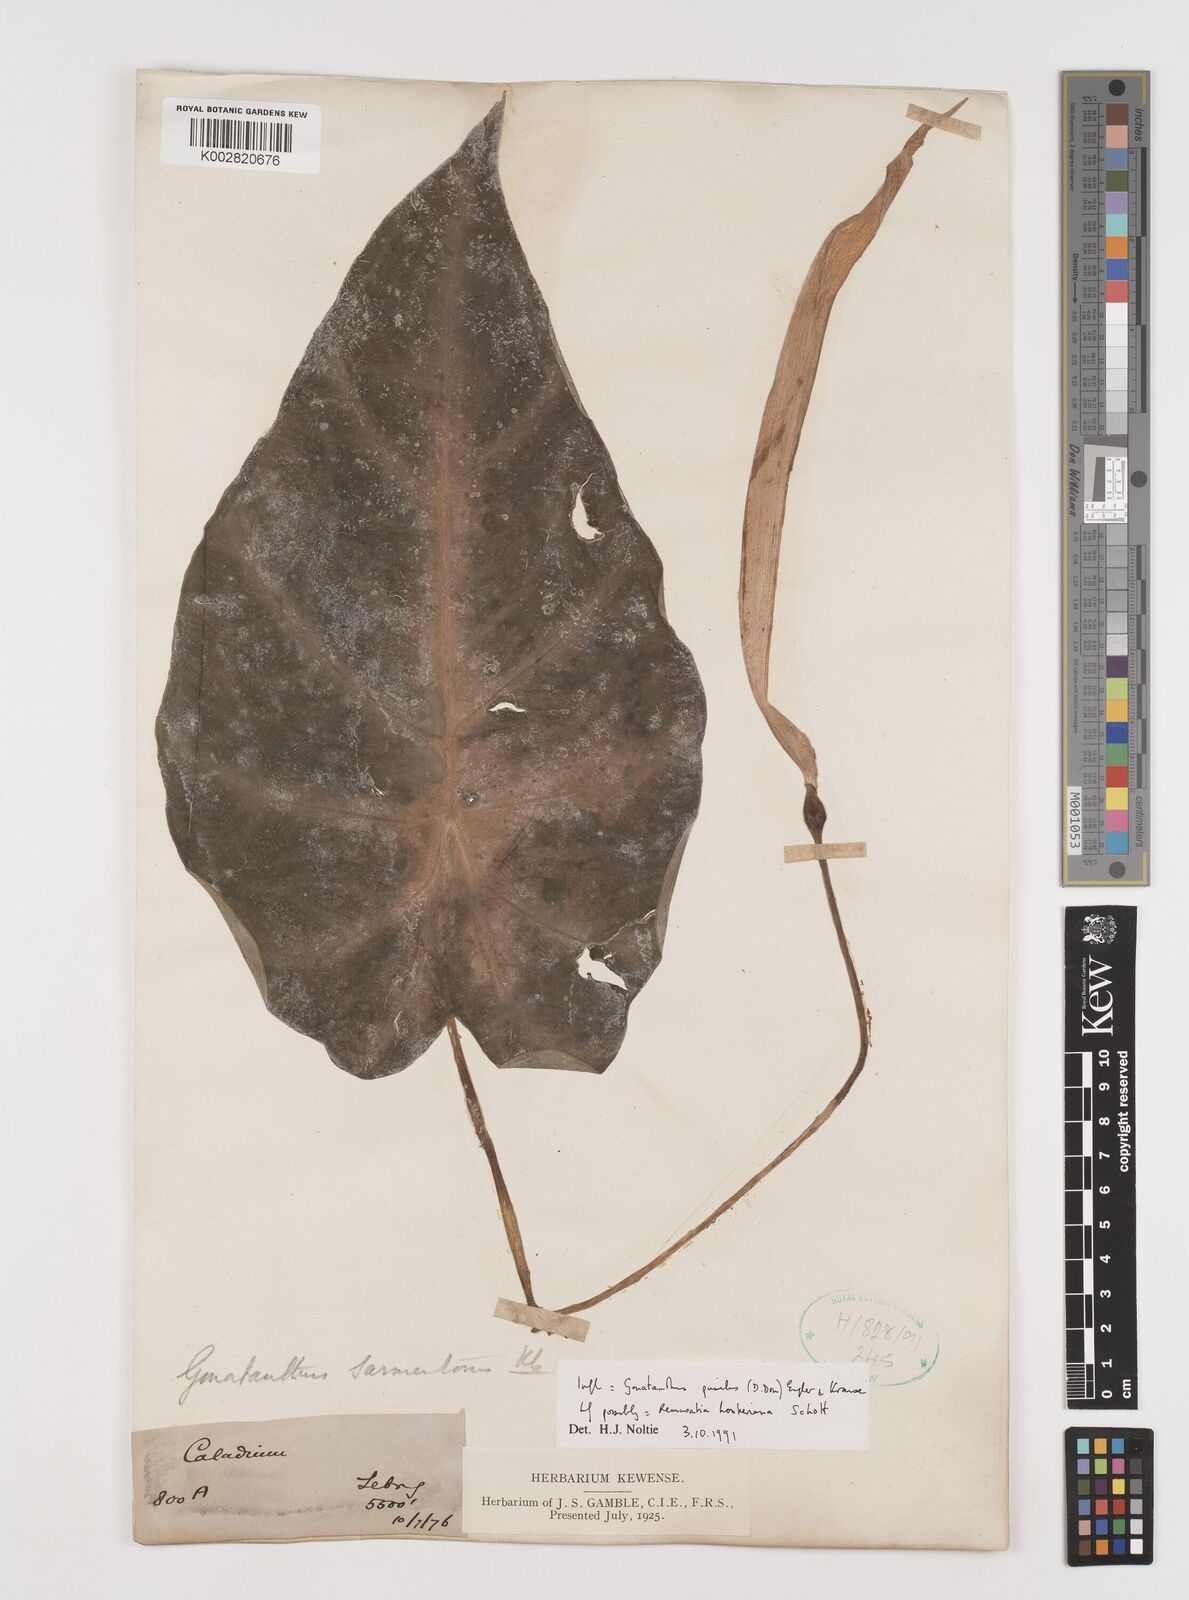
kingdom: Plantae
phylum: Tracheophyta
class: Liliopsida
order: Alismatales
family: Araceae
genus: Remusatia
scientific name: Remusatia pumila
